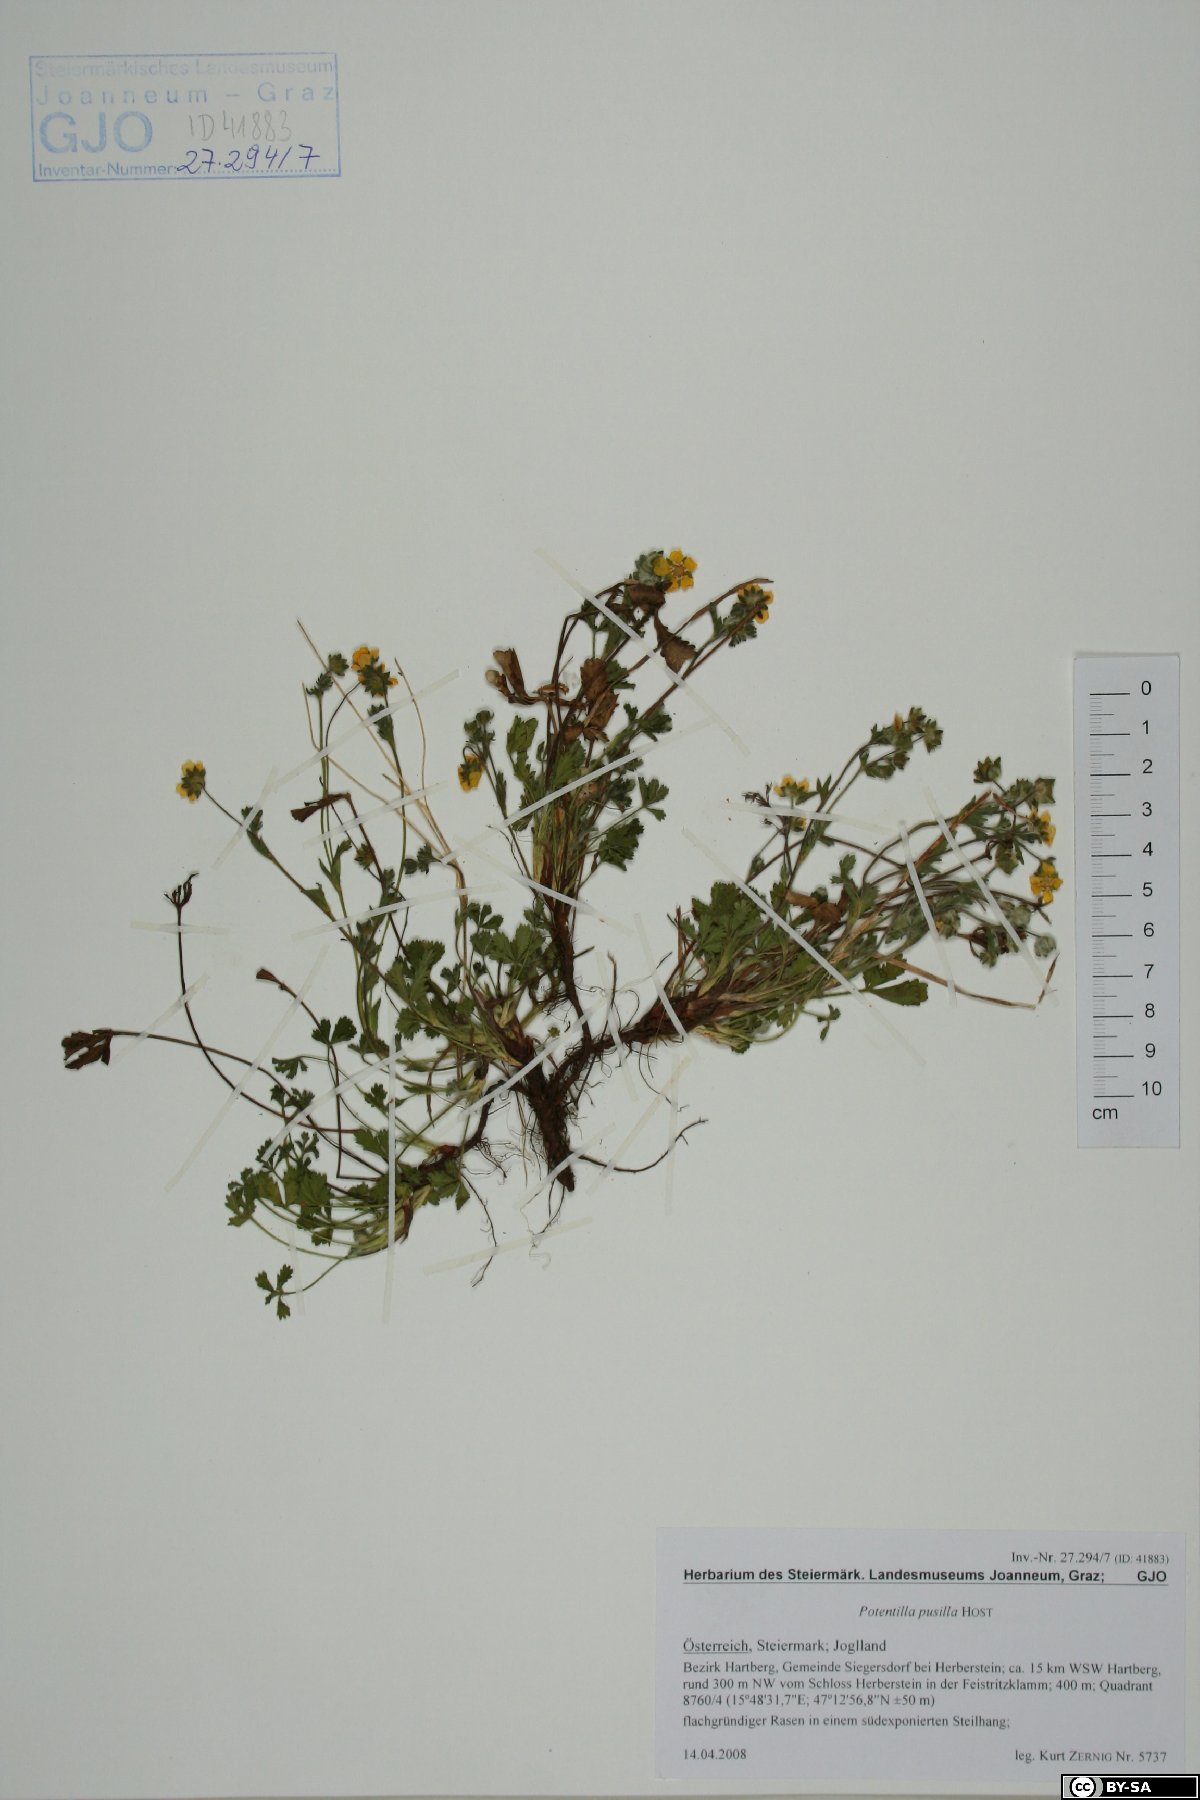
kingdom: Plantae
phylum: Tracheophyta
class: Magnoliopsida
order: Rosales
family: Rosaceae
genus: Potentilla
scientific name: Potentilla pusilla
